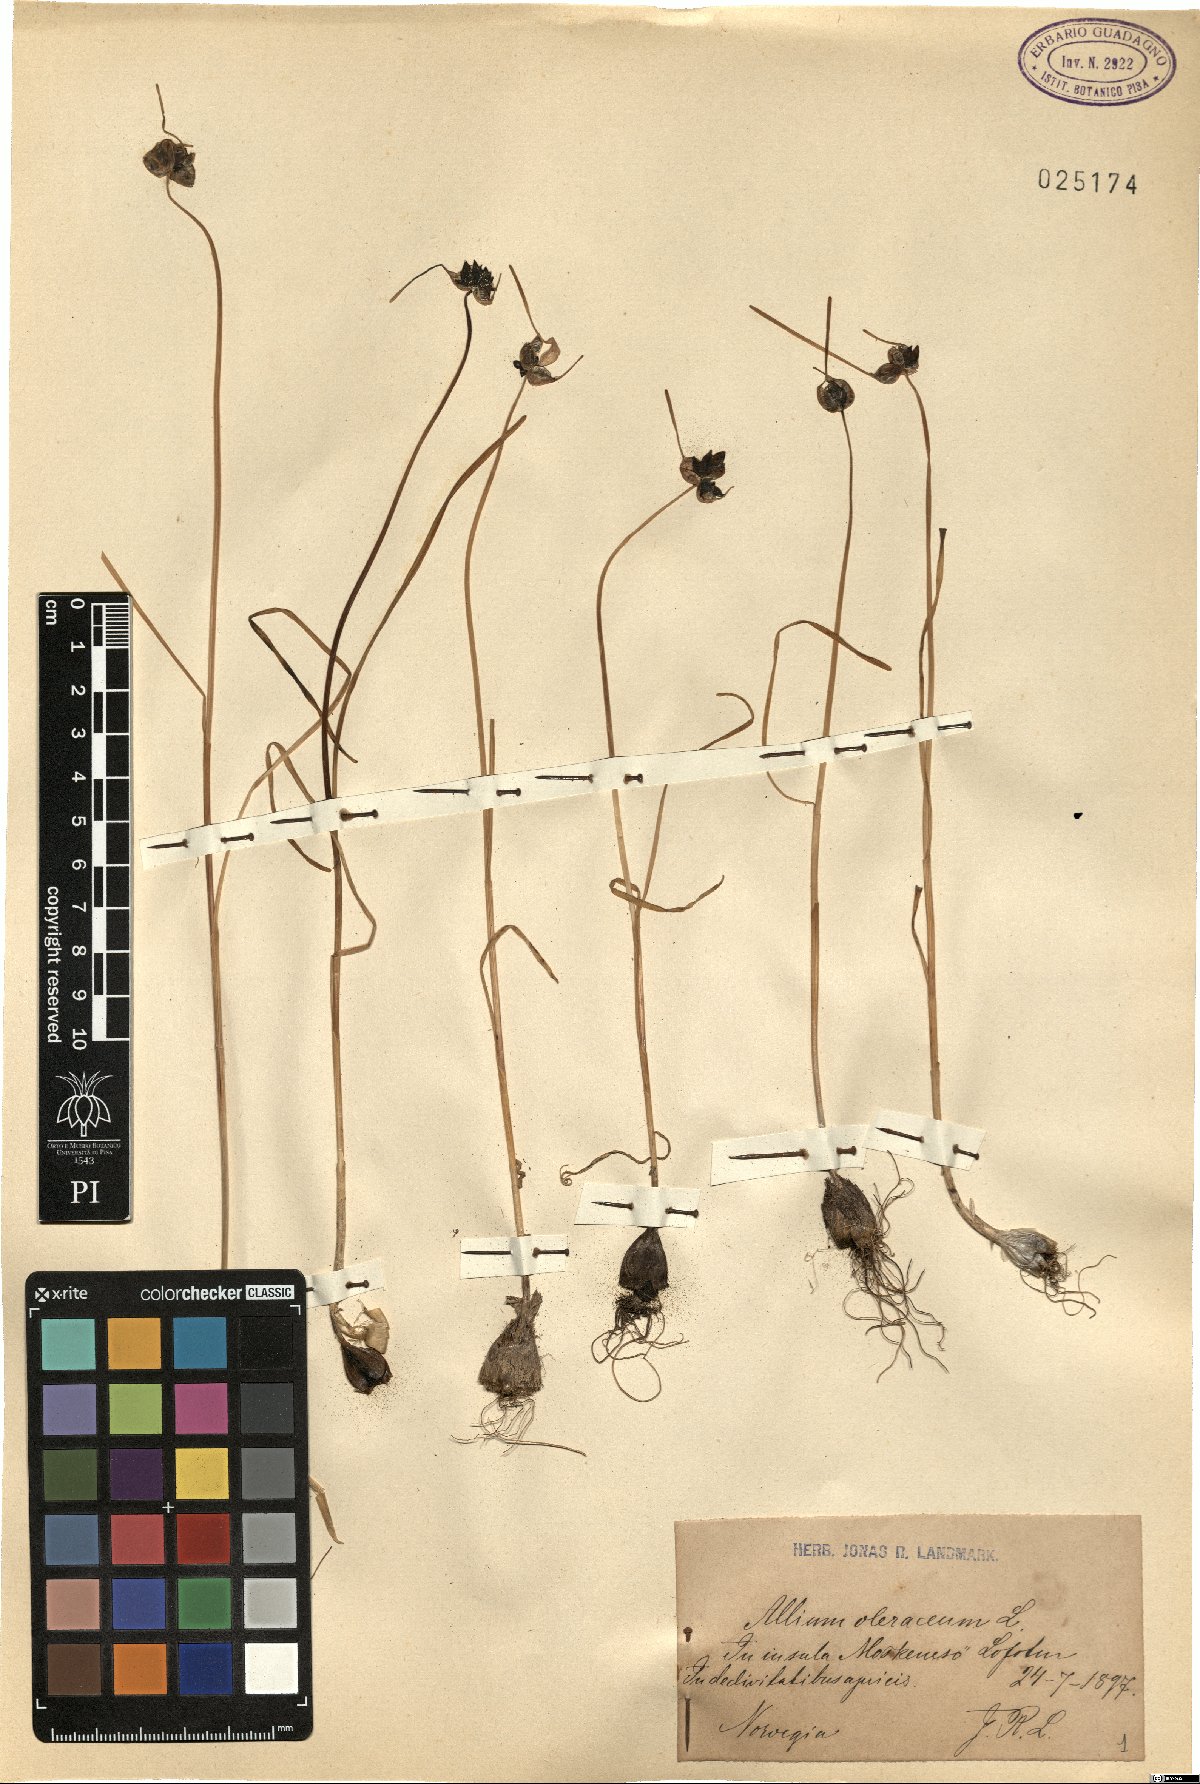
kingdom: Plantae
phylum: Tracheophyta
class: Liliopsida
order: Asparagales
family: Amaryllidaceae
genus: Allium
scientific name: Allium oleraceum
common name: Field garlic
